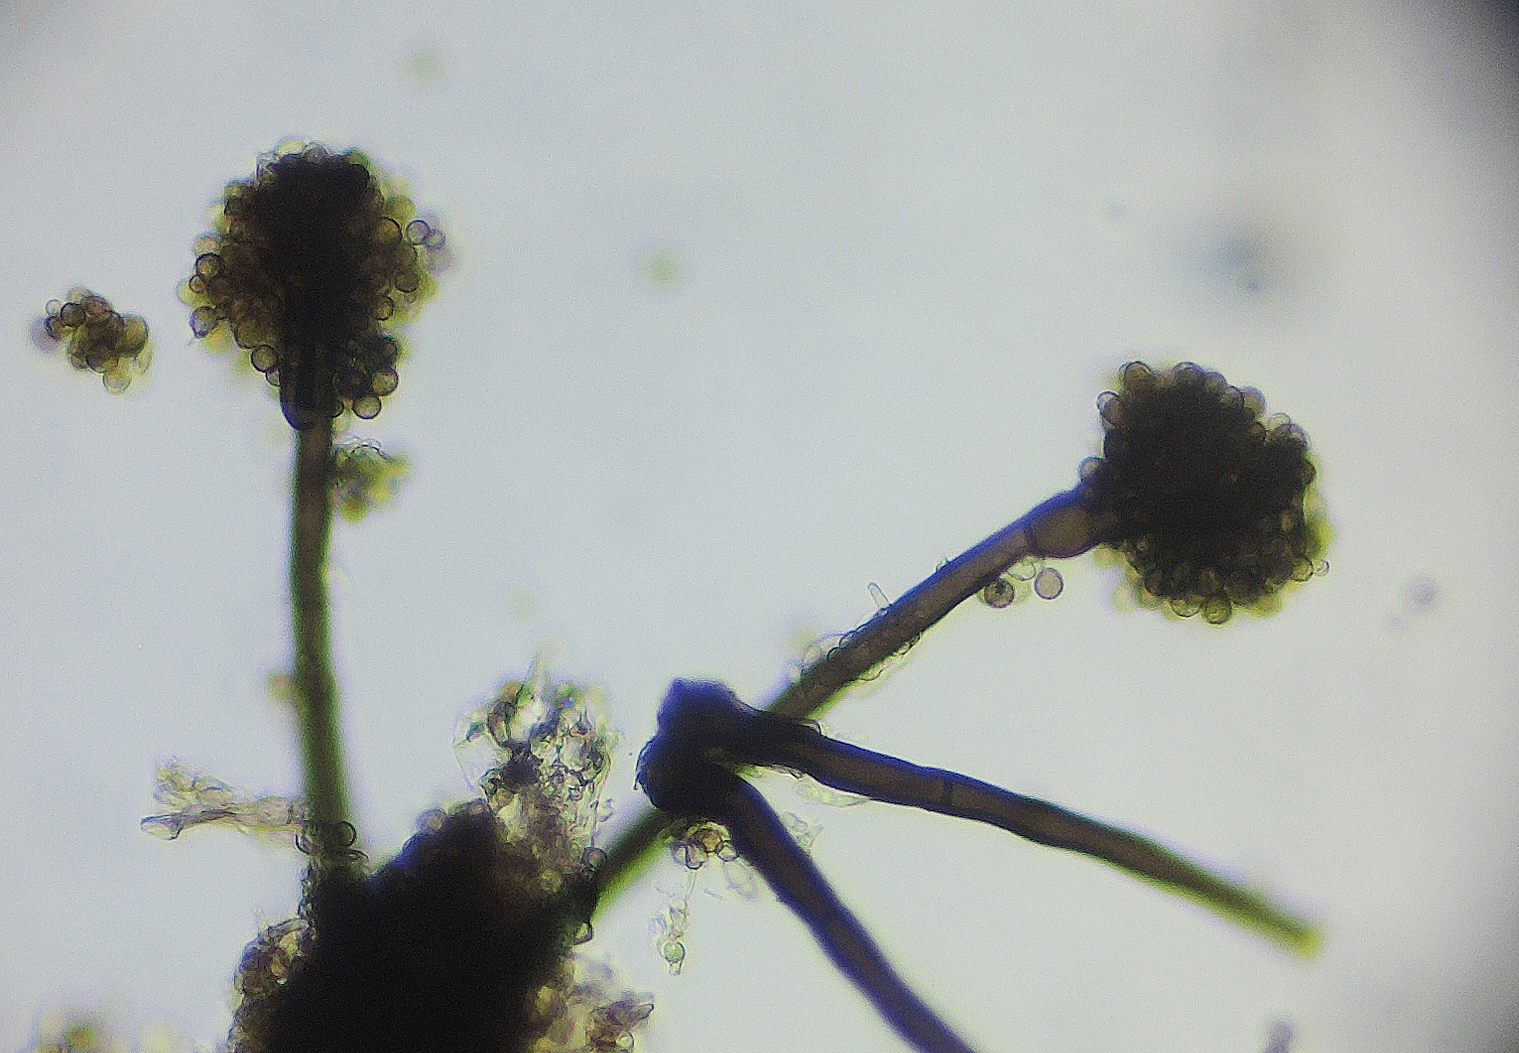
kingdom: Fungi
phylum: Ascomycota
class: Dothideomycetes
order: Pleosporales
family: Periconiaceae
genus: Periconia
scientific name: Periconia
